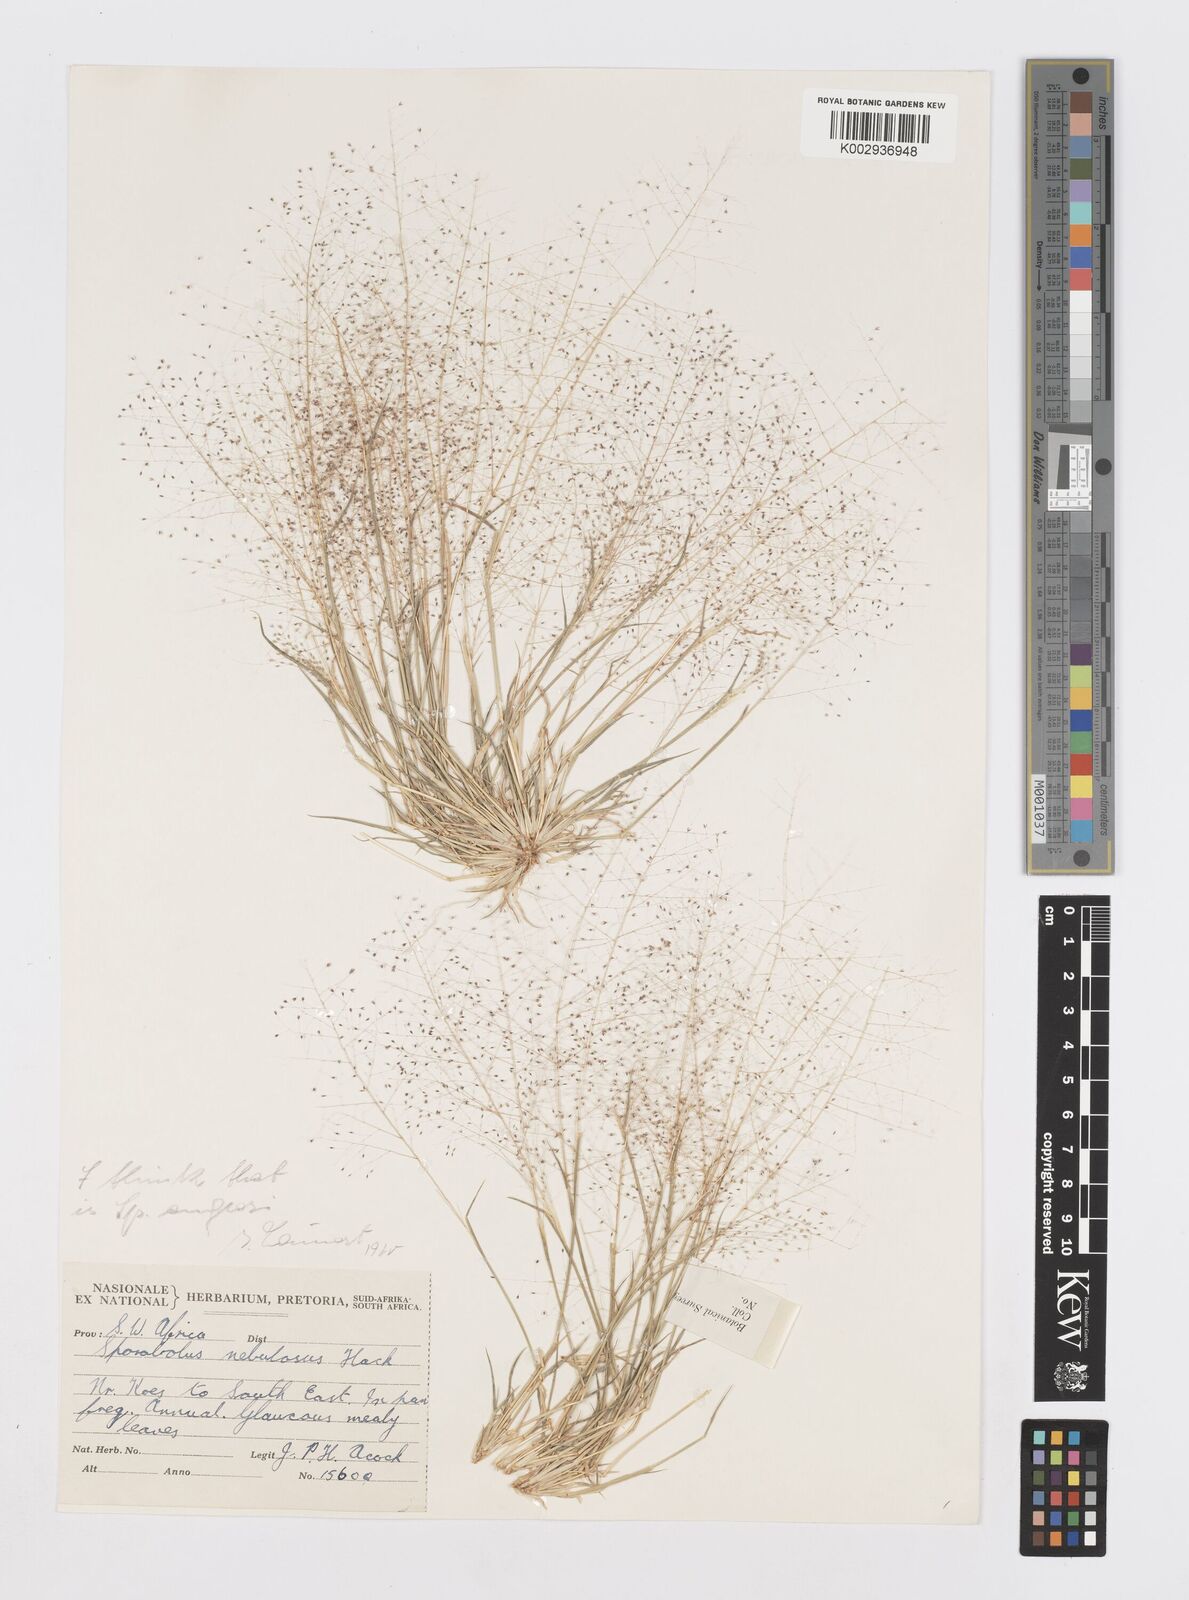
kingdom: Plantae
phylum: Tracheophyta
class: Liliopsida
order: Poales
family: Poaceae
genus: Sporobolus
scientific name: Sporobolus engleri
